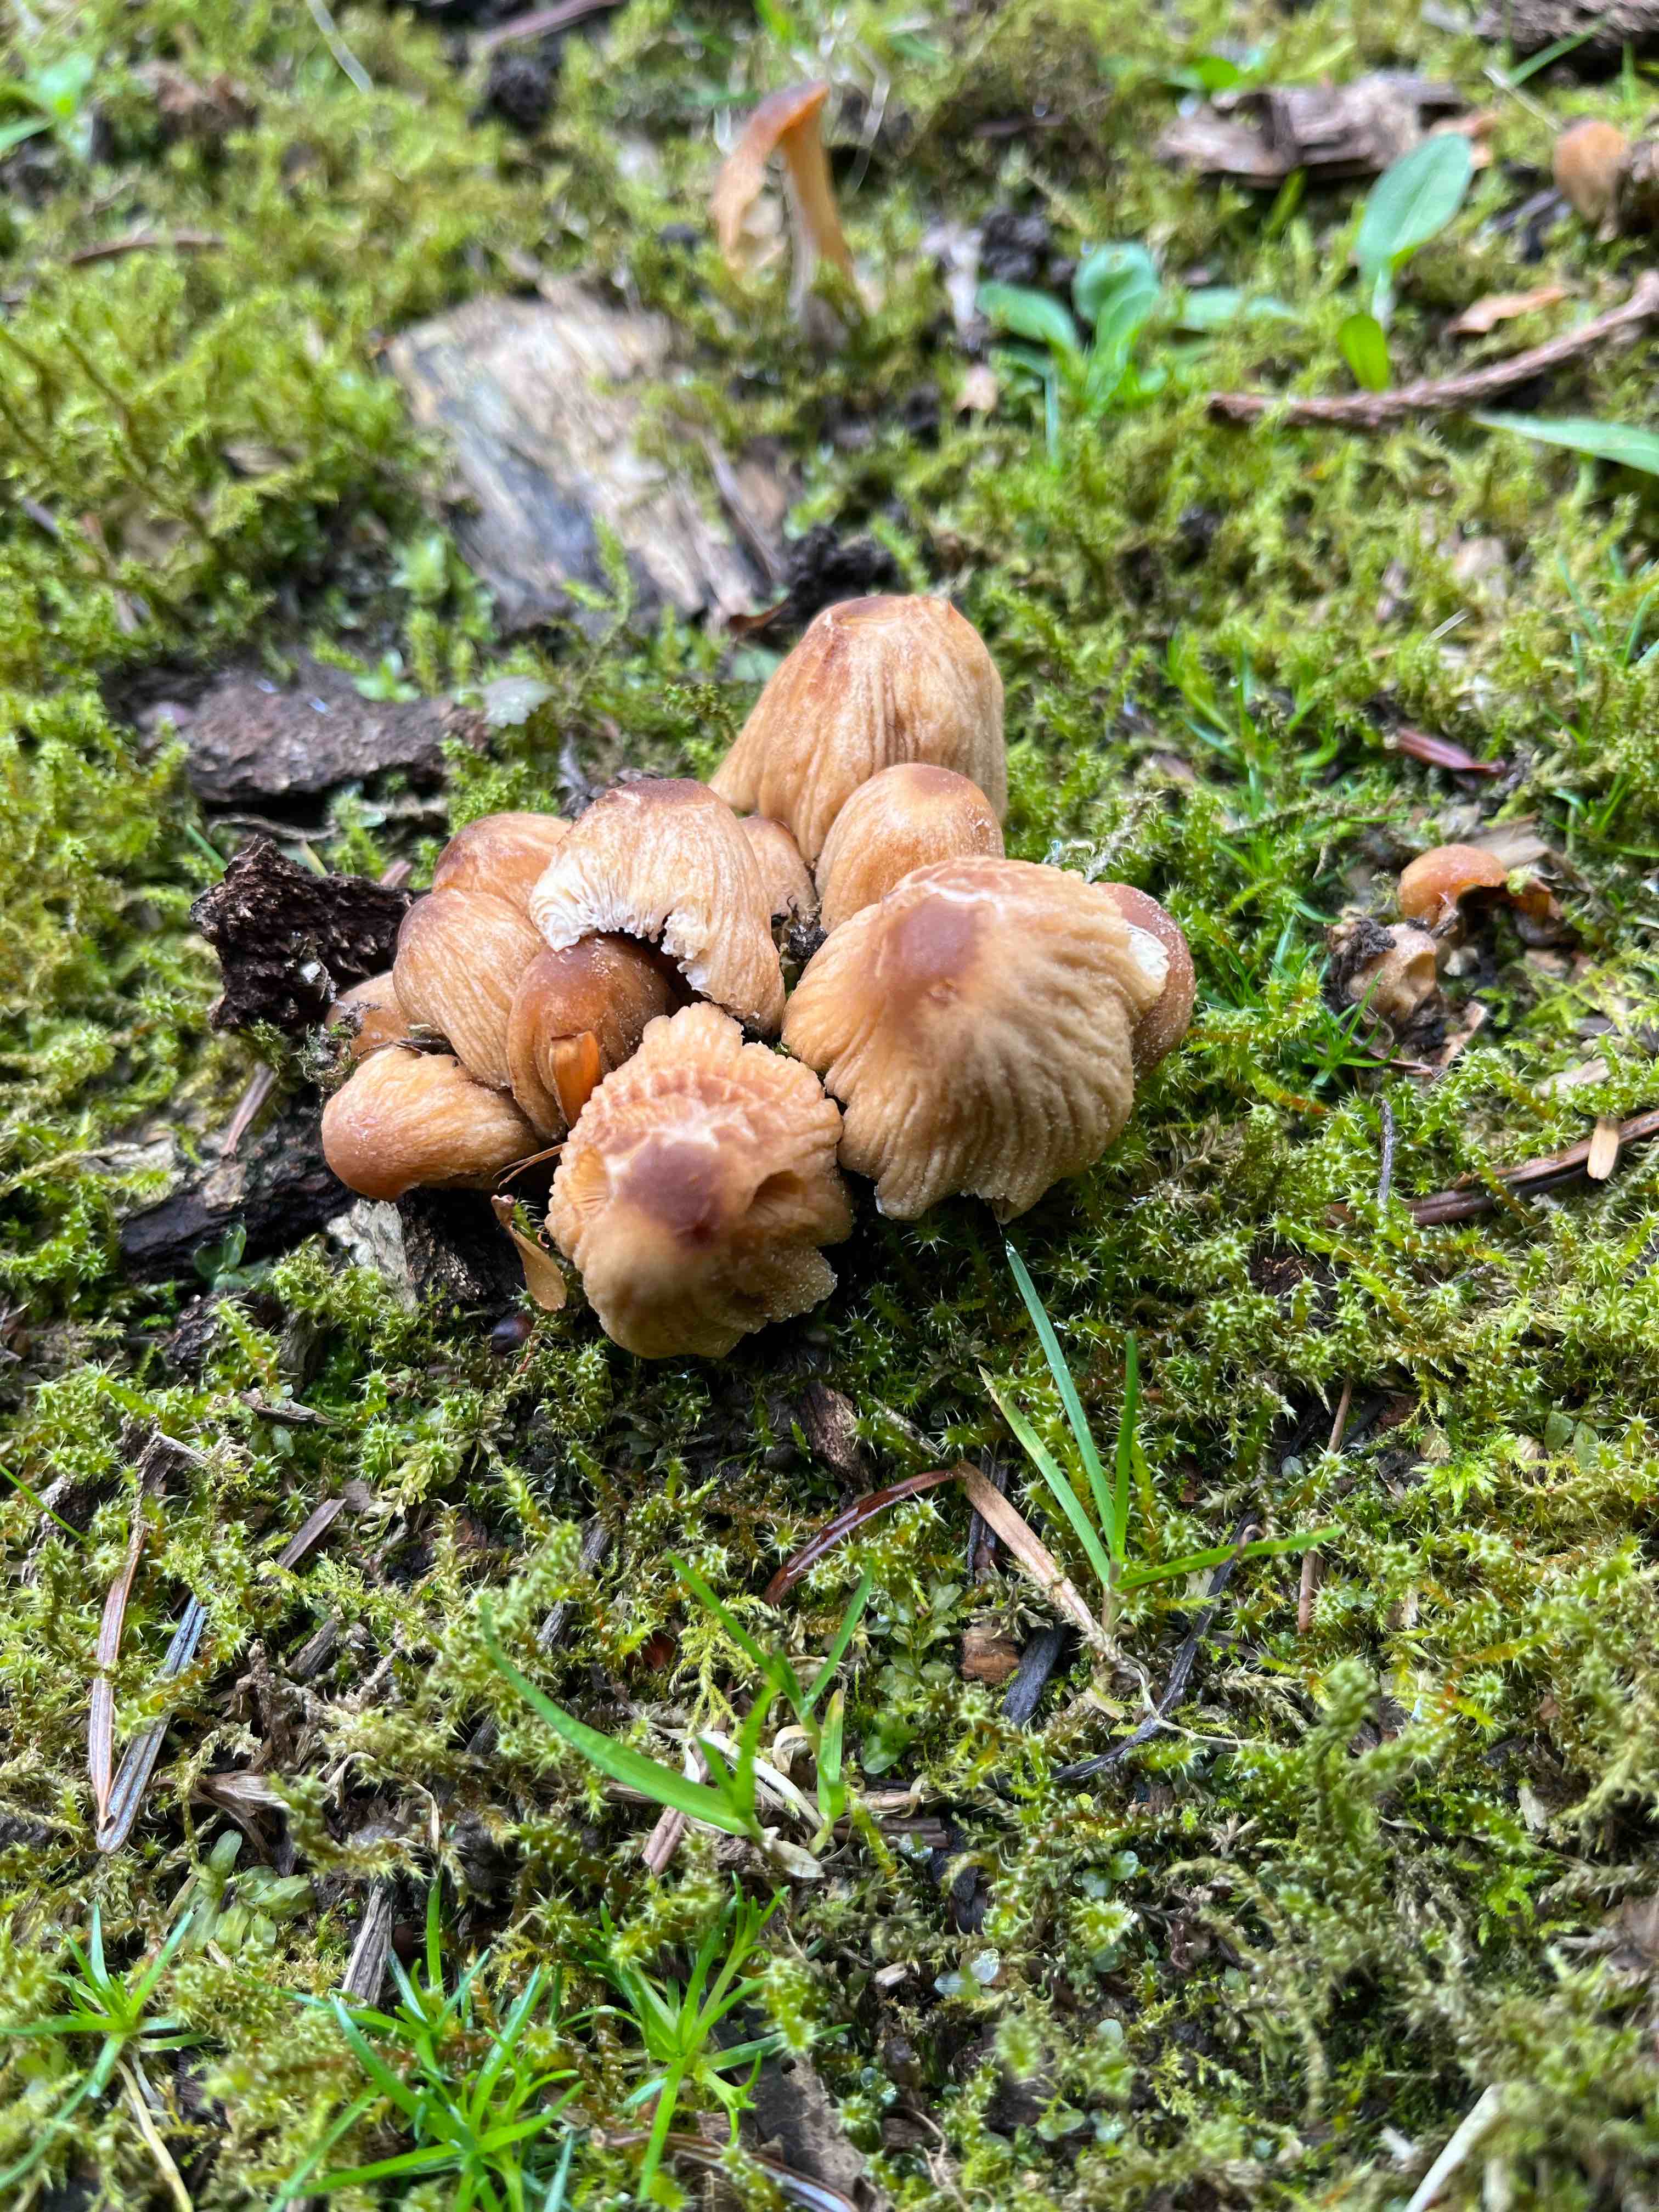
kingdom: Fungi
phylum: Basidiomycota
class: Agaricomycetes
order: Agaricales
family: Psathyrellaceae
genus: Coprinellus
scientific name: Coprinellus micaceus
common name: glimmer-blækhat
